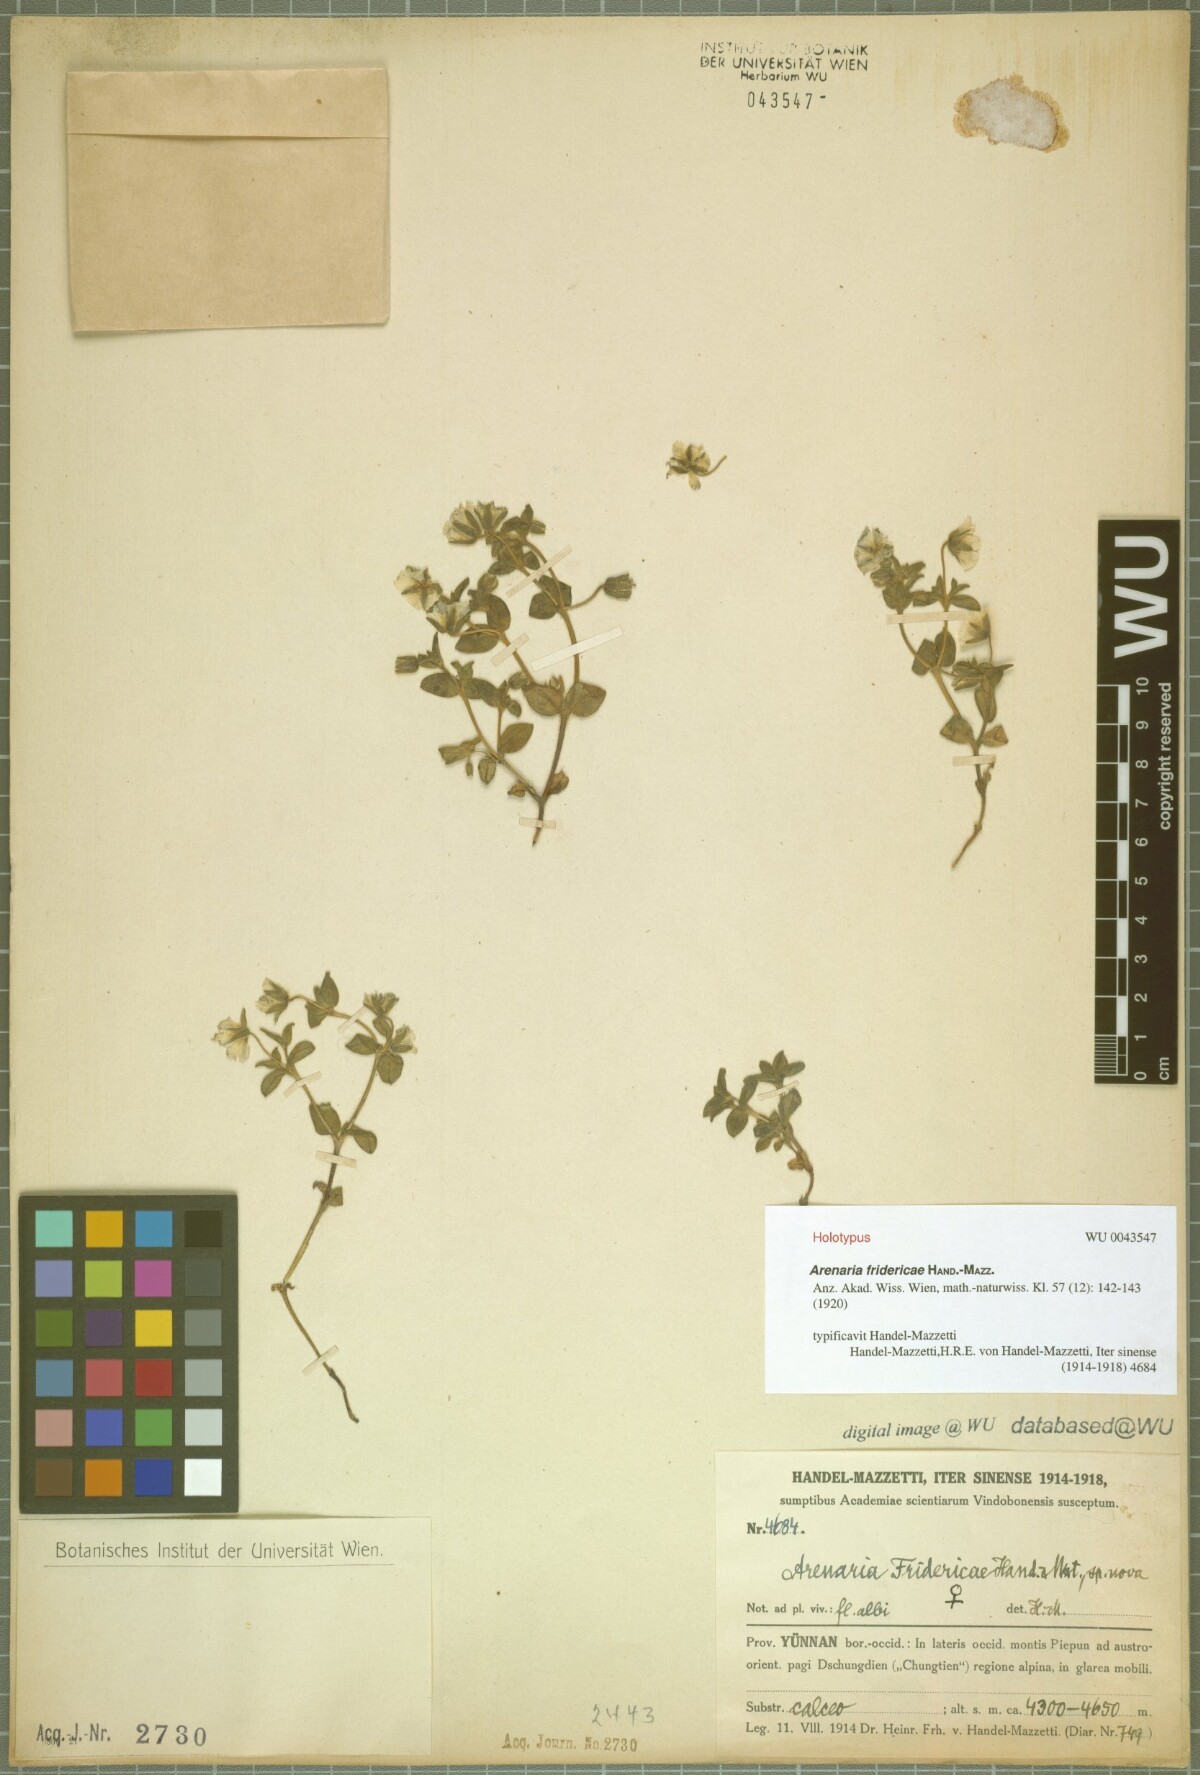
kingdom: Plantae
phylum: Tracheophyta
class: Magnoliopsida
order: Caryophyllales
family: Caryophyllaceae
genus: Odontostemma
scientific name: Odontostemma fridericae
